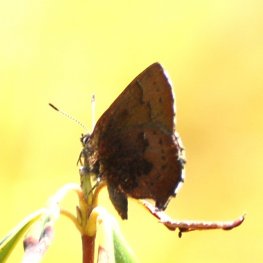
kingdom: Animalia
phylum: Arthropoda
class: Insecta
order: Lepidoptera
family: Lycaenidae
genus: Incisalia
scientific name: Incisalia irioides
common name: Brown Elfin
